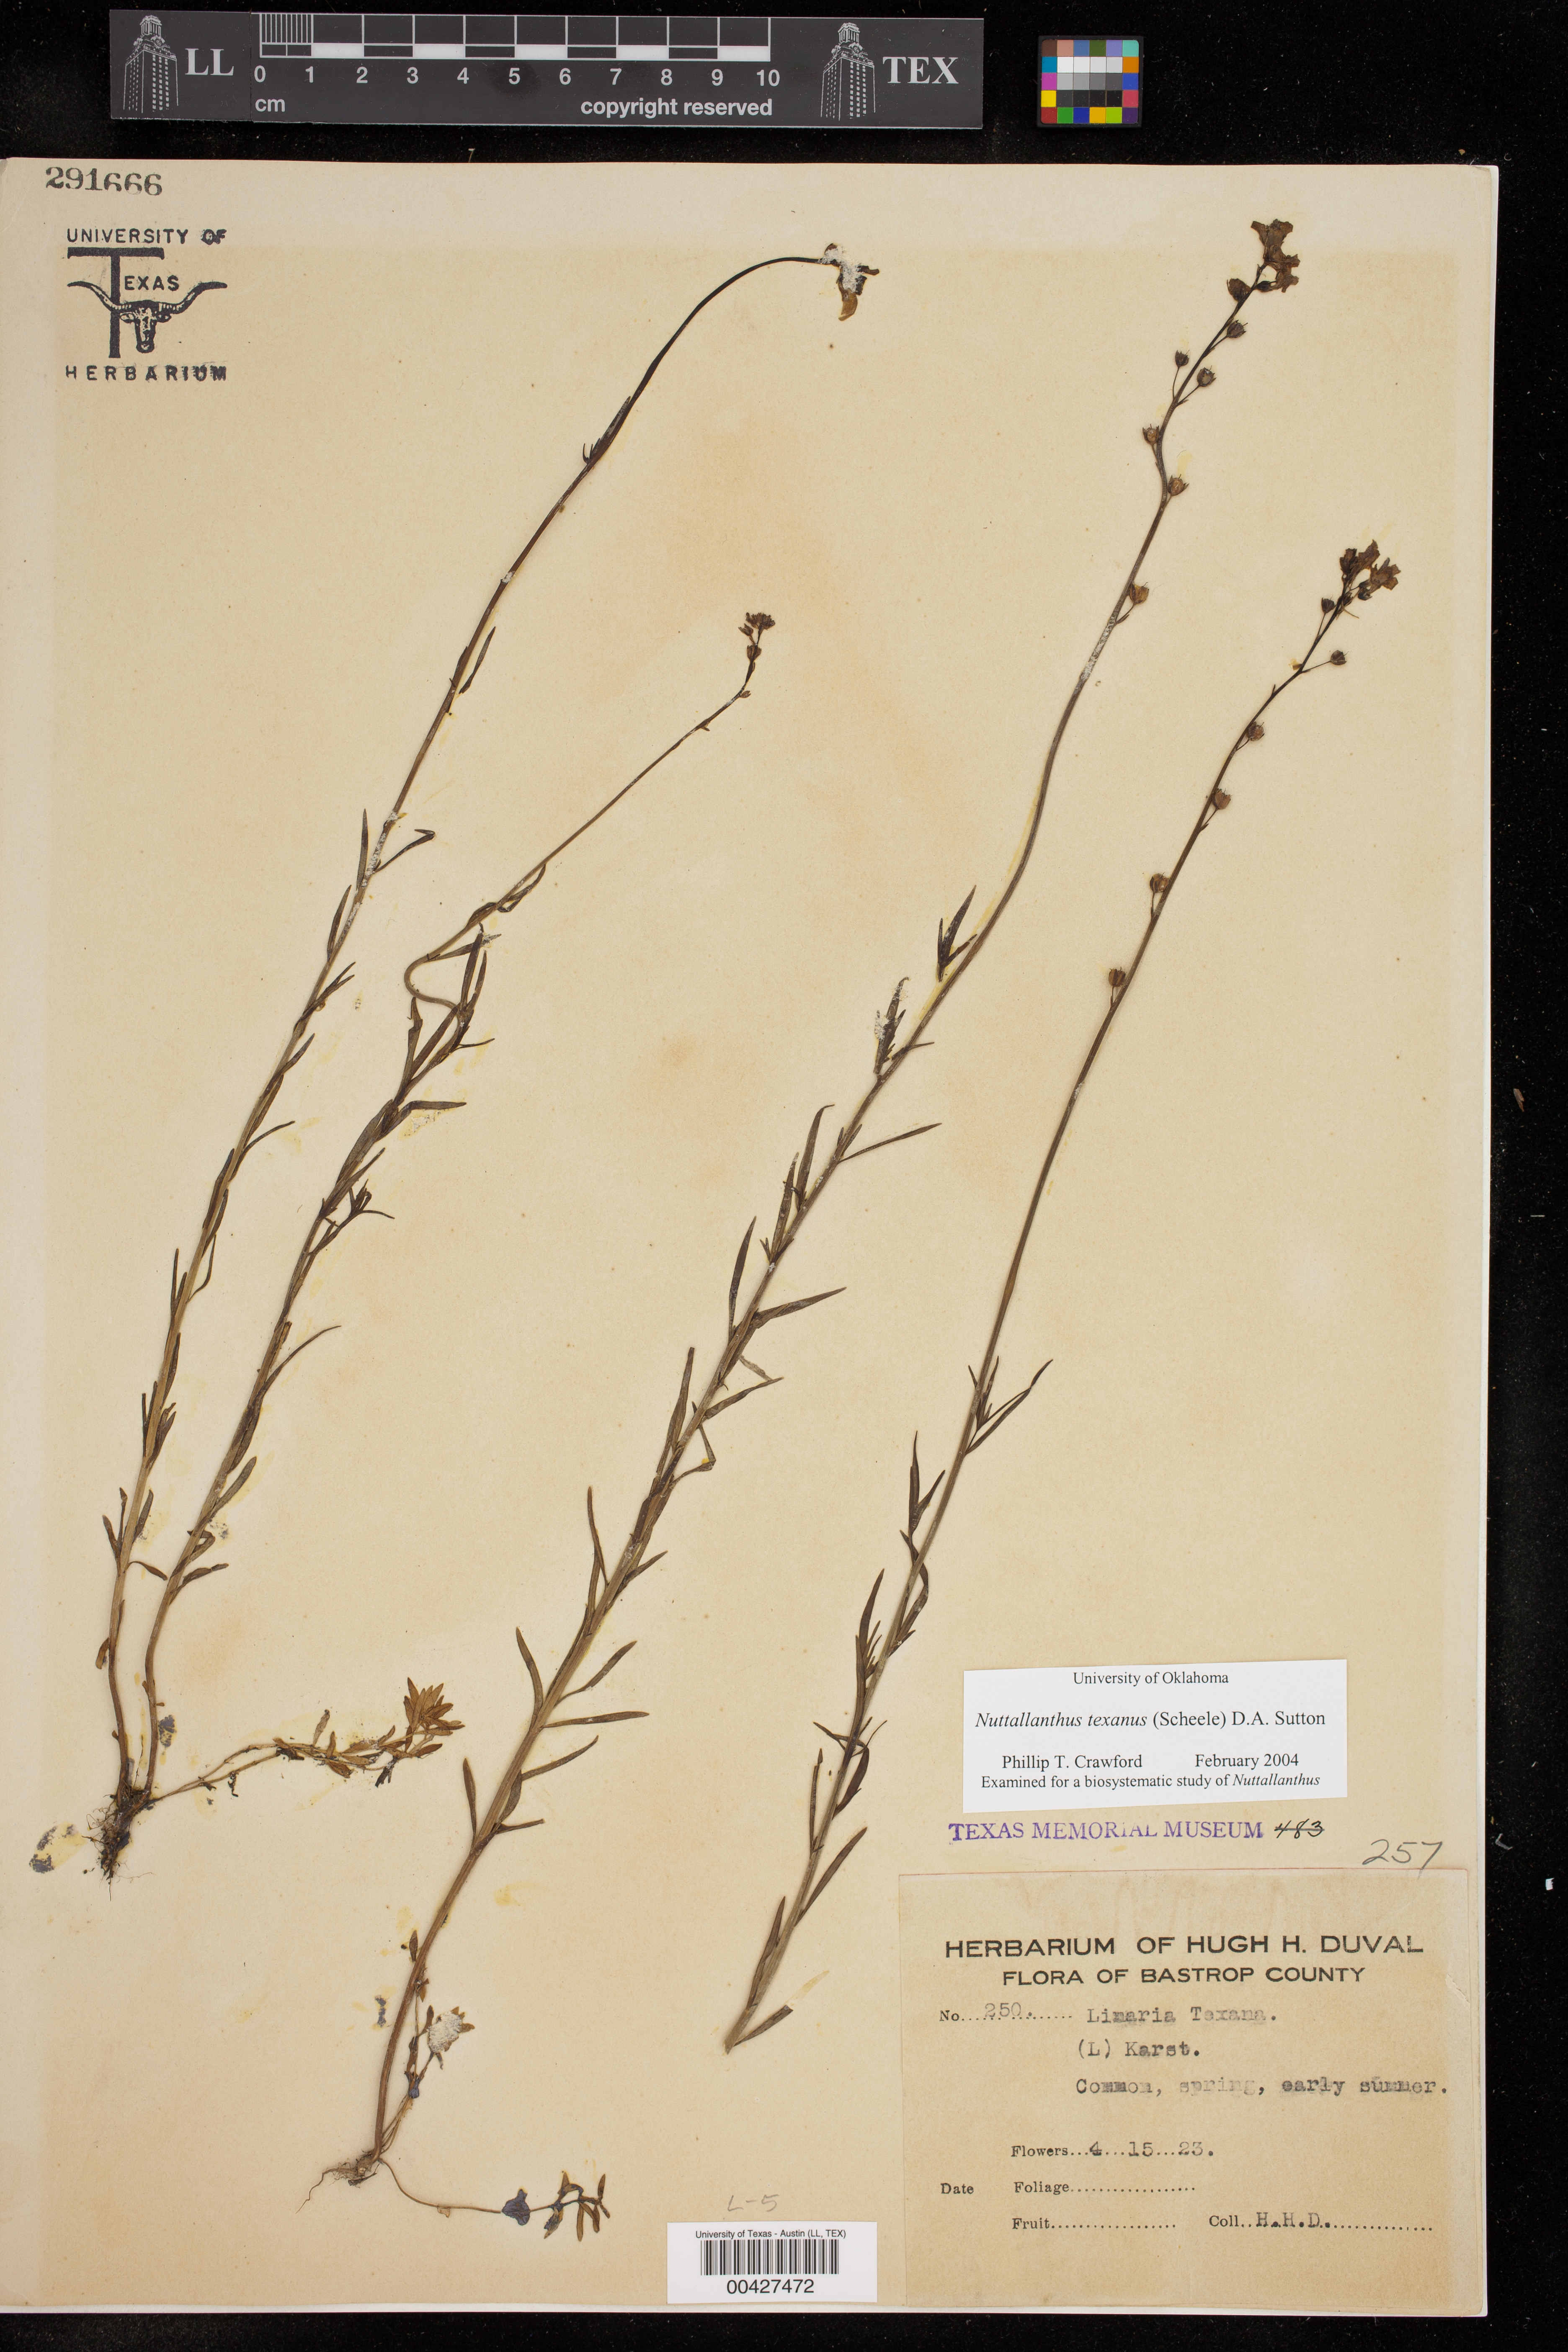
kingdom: Plantae
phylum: Tracheophyta
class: Magnoliopsida
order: Lamiales
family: Plantaginaceae
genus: Nuttallanthus
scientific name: Nuttallanthus texanus
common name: Texas toadflax
